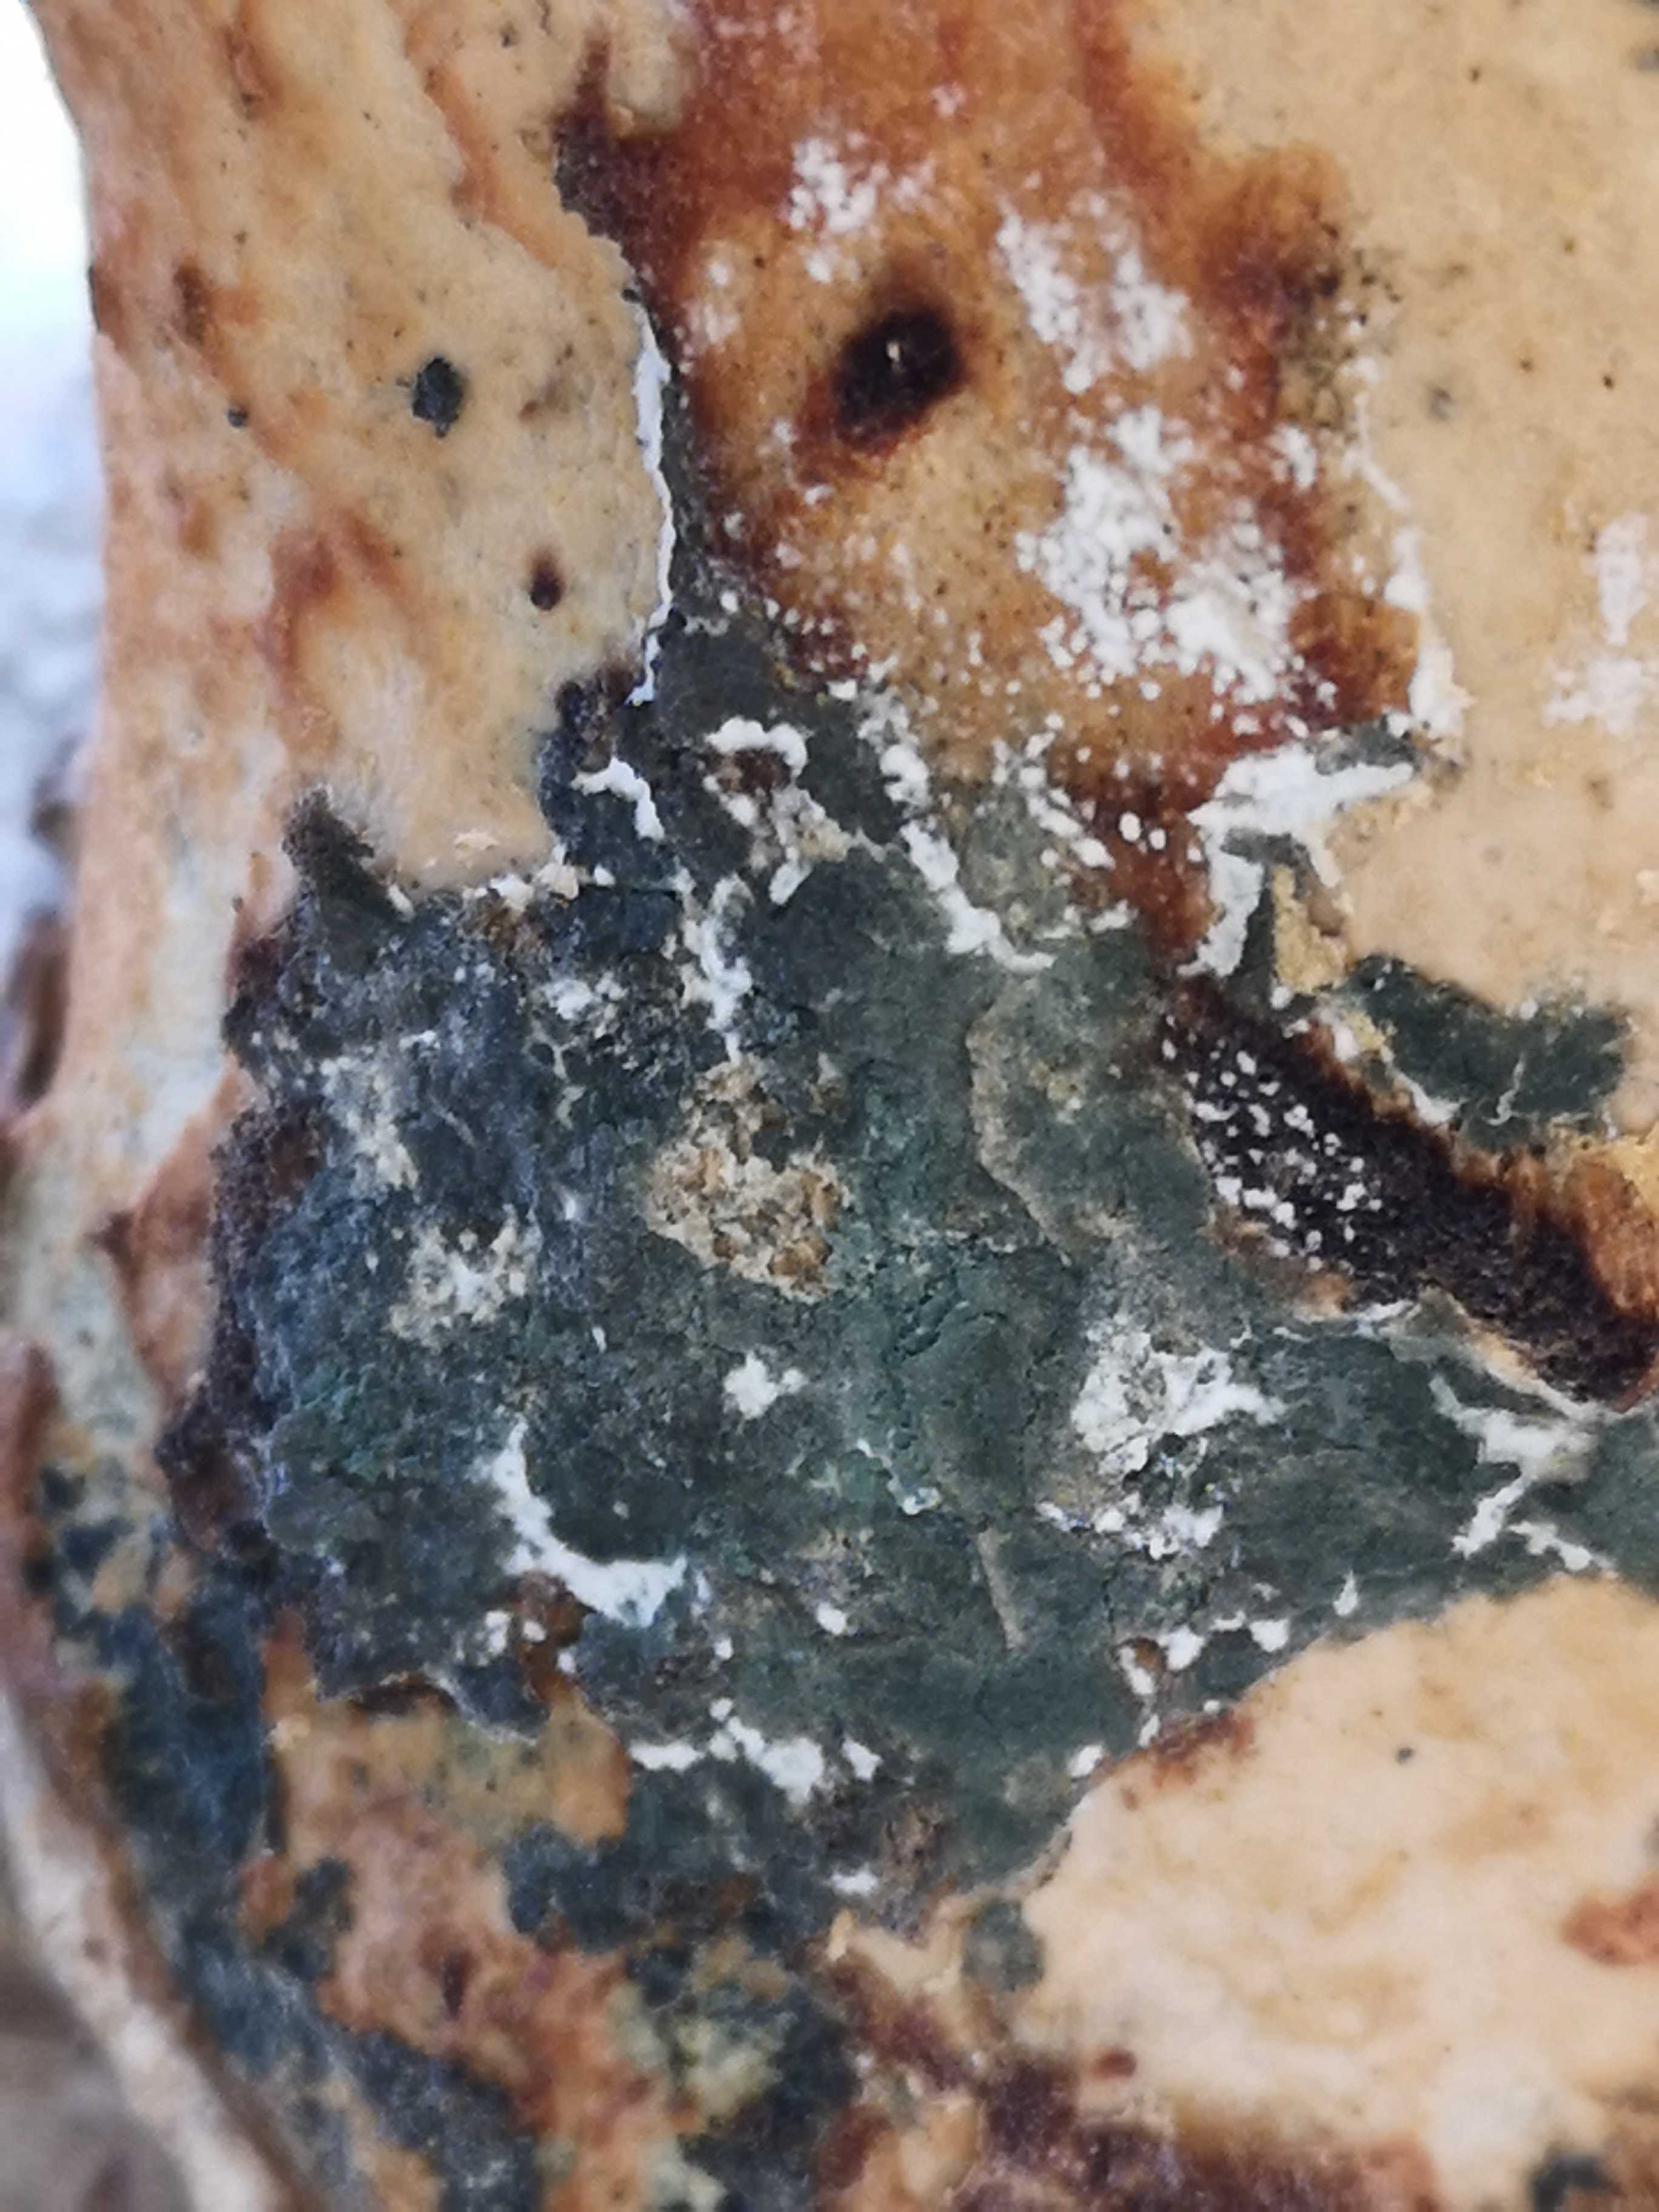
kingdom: Fungi
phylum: Ascomycota
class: Sordariomycetes
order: Hypocreales
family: Hypocreaceae
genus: Trichoderma
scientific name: Trichoderma
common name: kødkerne
